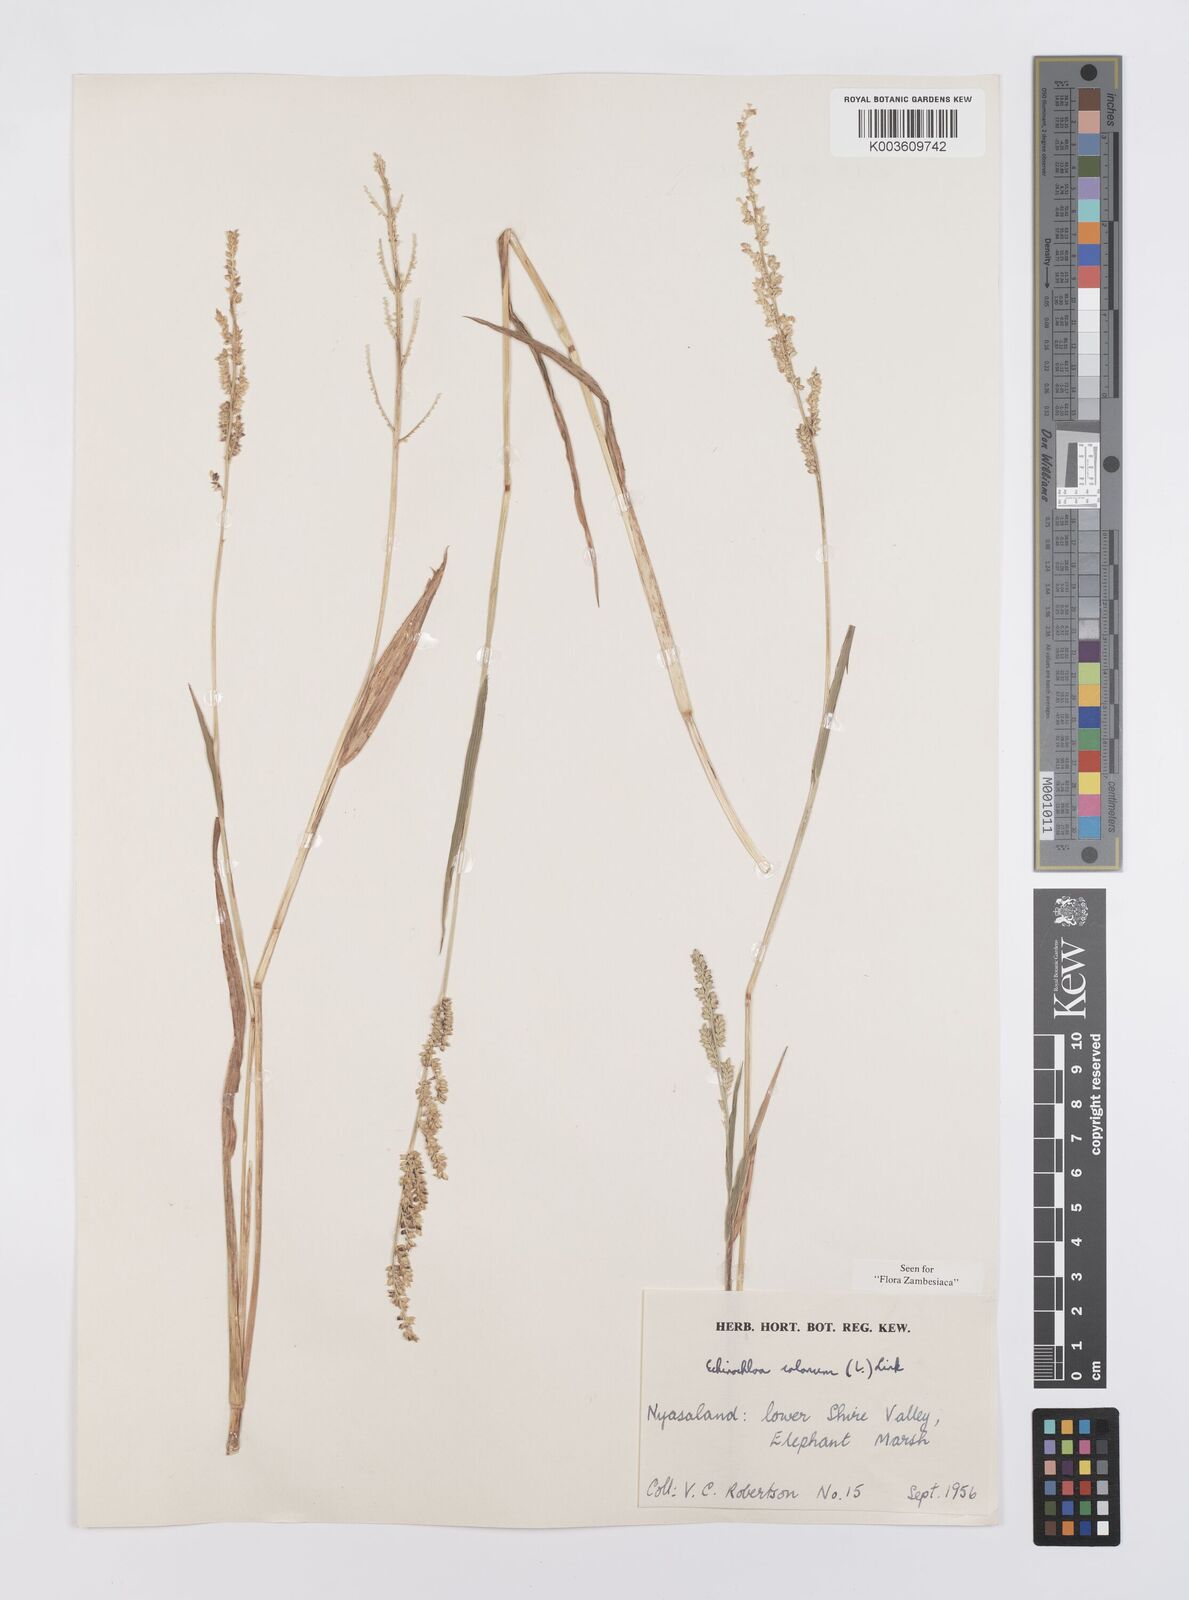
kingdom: Plantae
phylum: Tracheophyta
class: Liliopsida
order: Poales
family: Poaceae
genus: Echinochloa
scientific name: Echinochloa colonum
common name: Jungle rice
